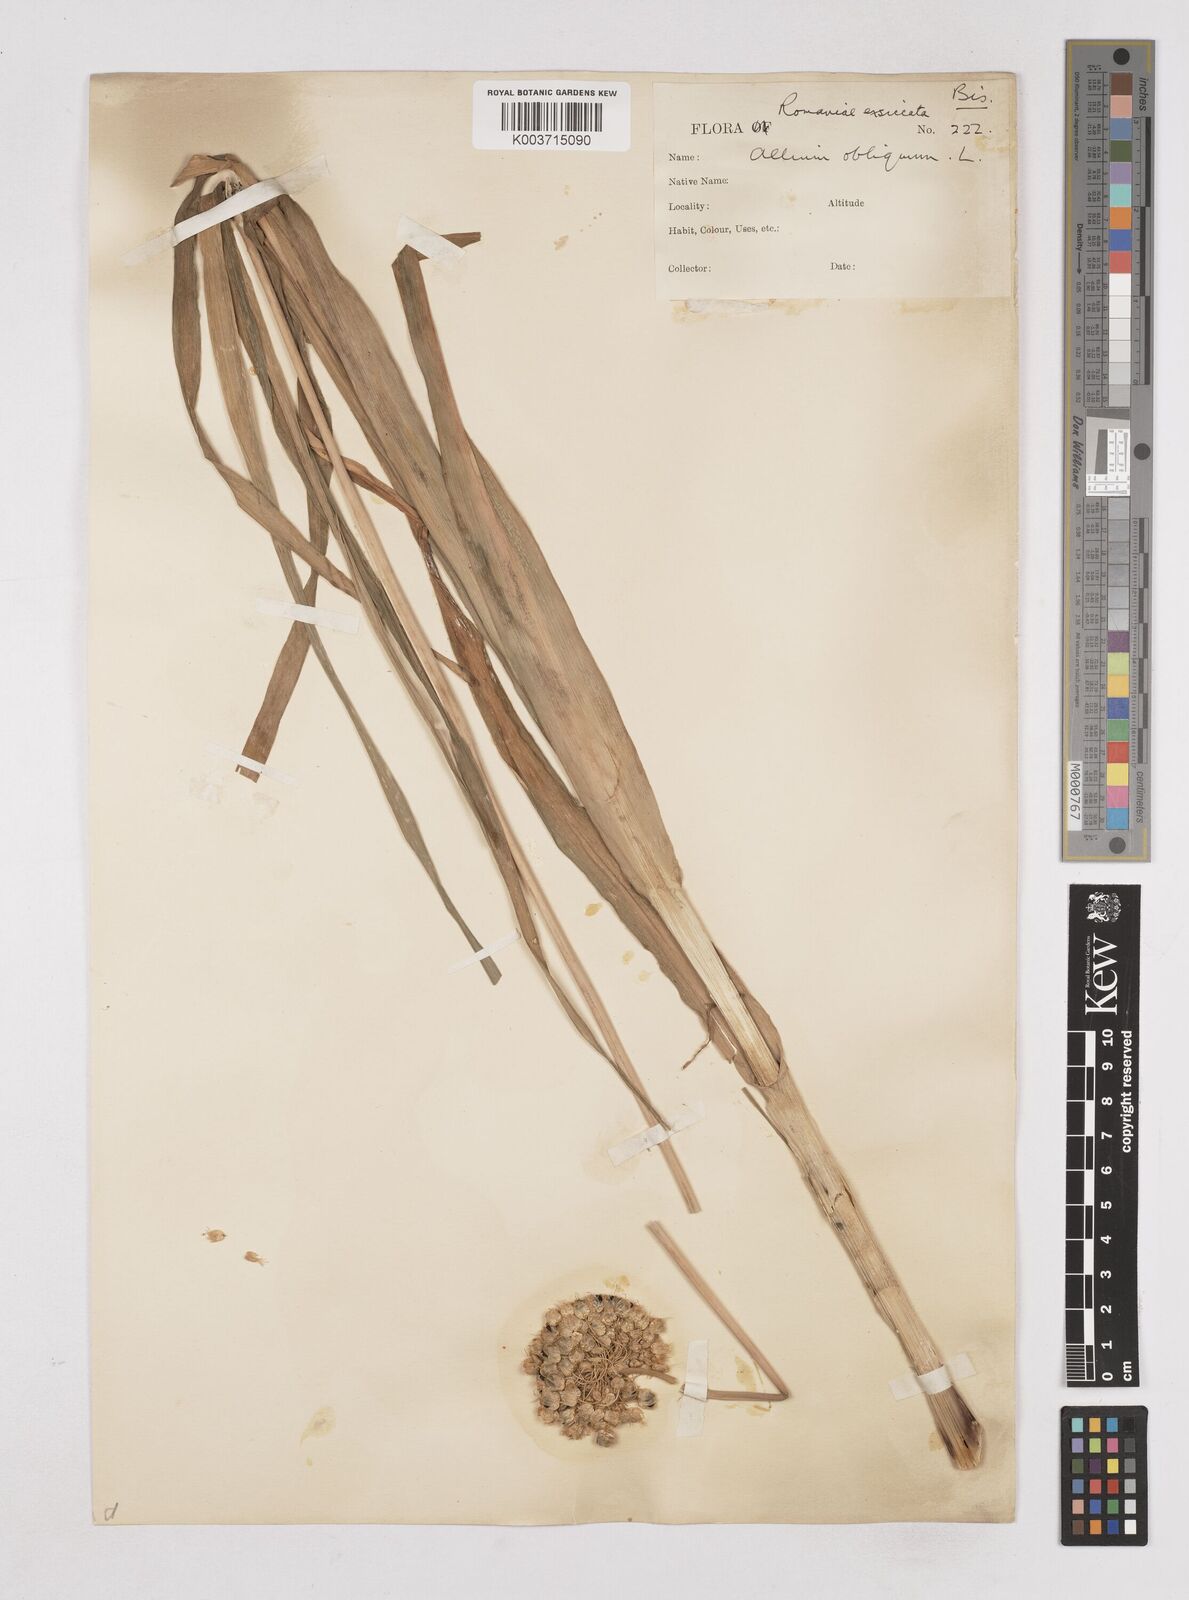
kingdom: Plantae
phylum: Tracheophyta
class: Liliopsida
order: Asparagales
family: Amaryllidaceae
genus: Allium
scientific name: Allium obliquum
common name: Oblique onion
